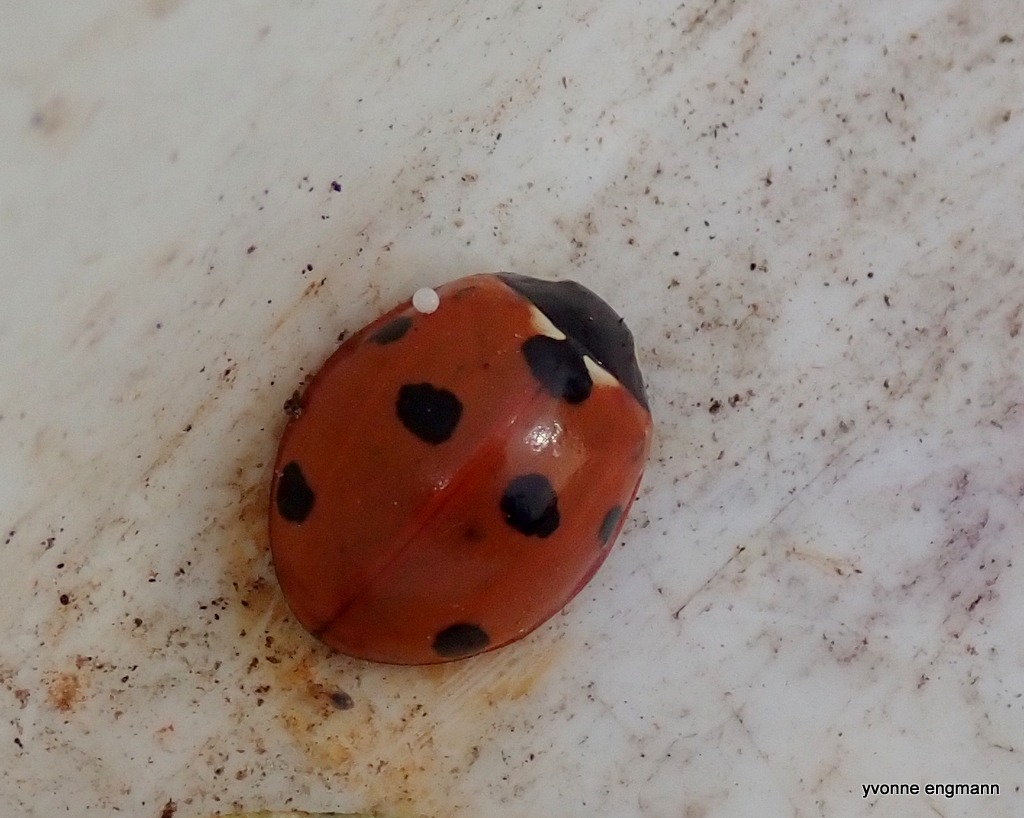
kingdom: Animalia
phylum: Arthropoda
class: Insecta
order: Coleoptera
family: Coccinellidae
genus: Coccinella
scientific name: Coccinella septempunctata
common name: Syvplettet mariehøne
